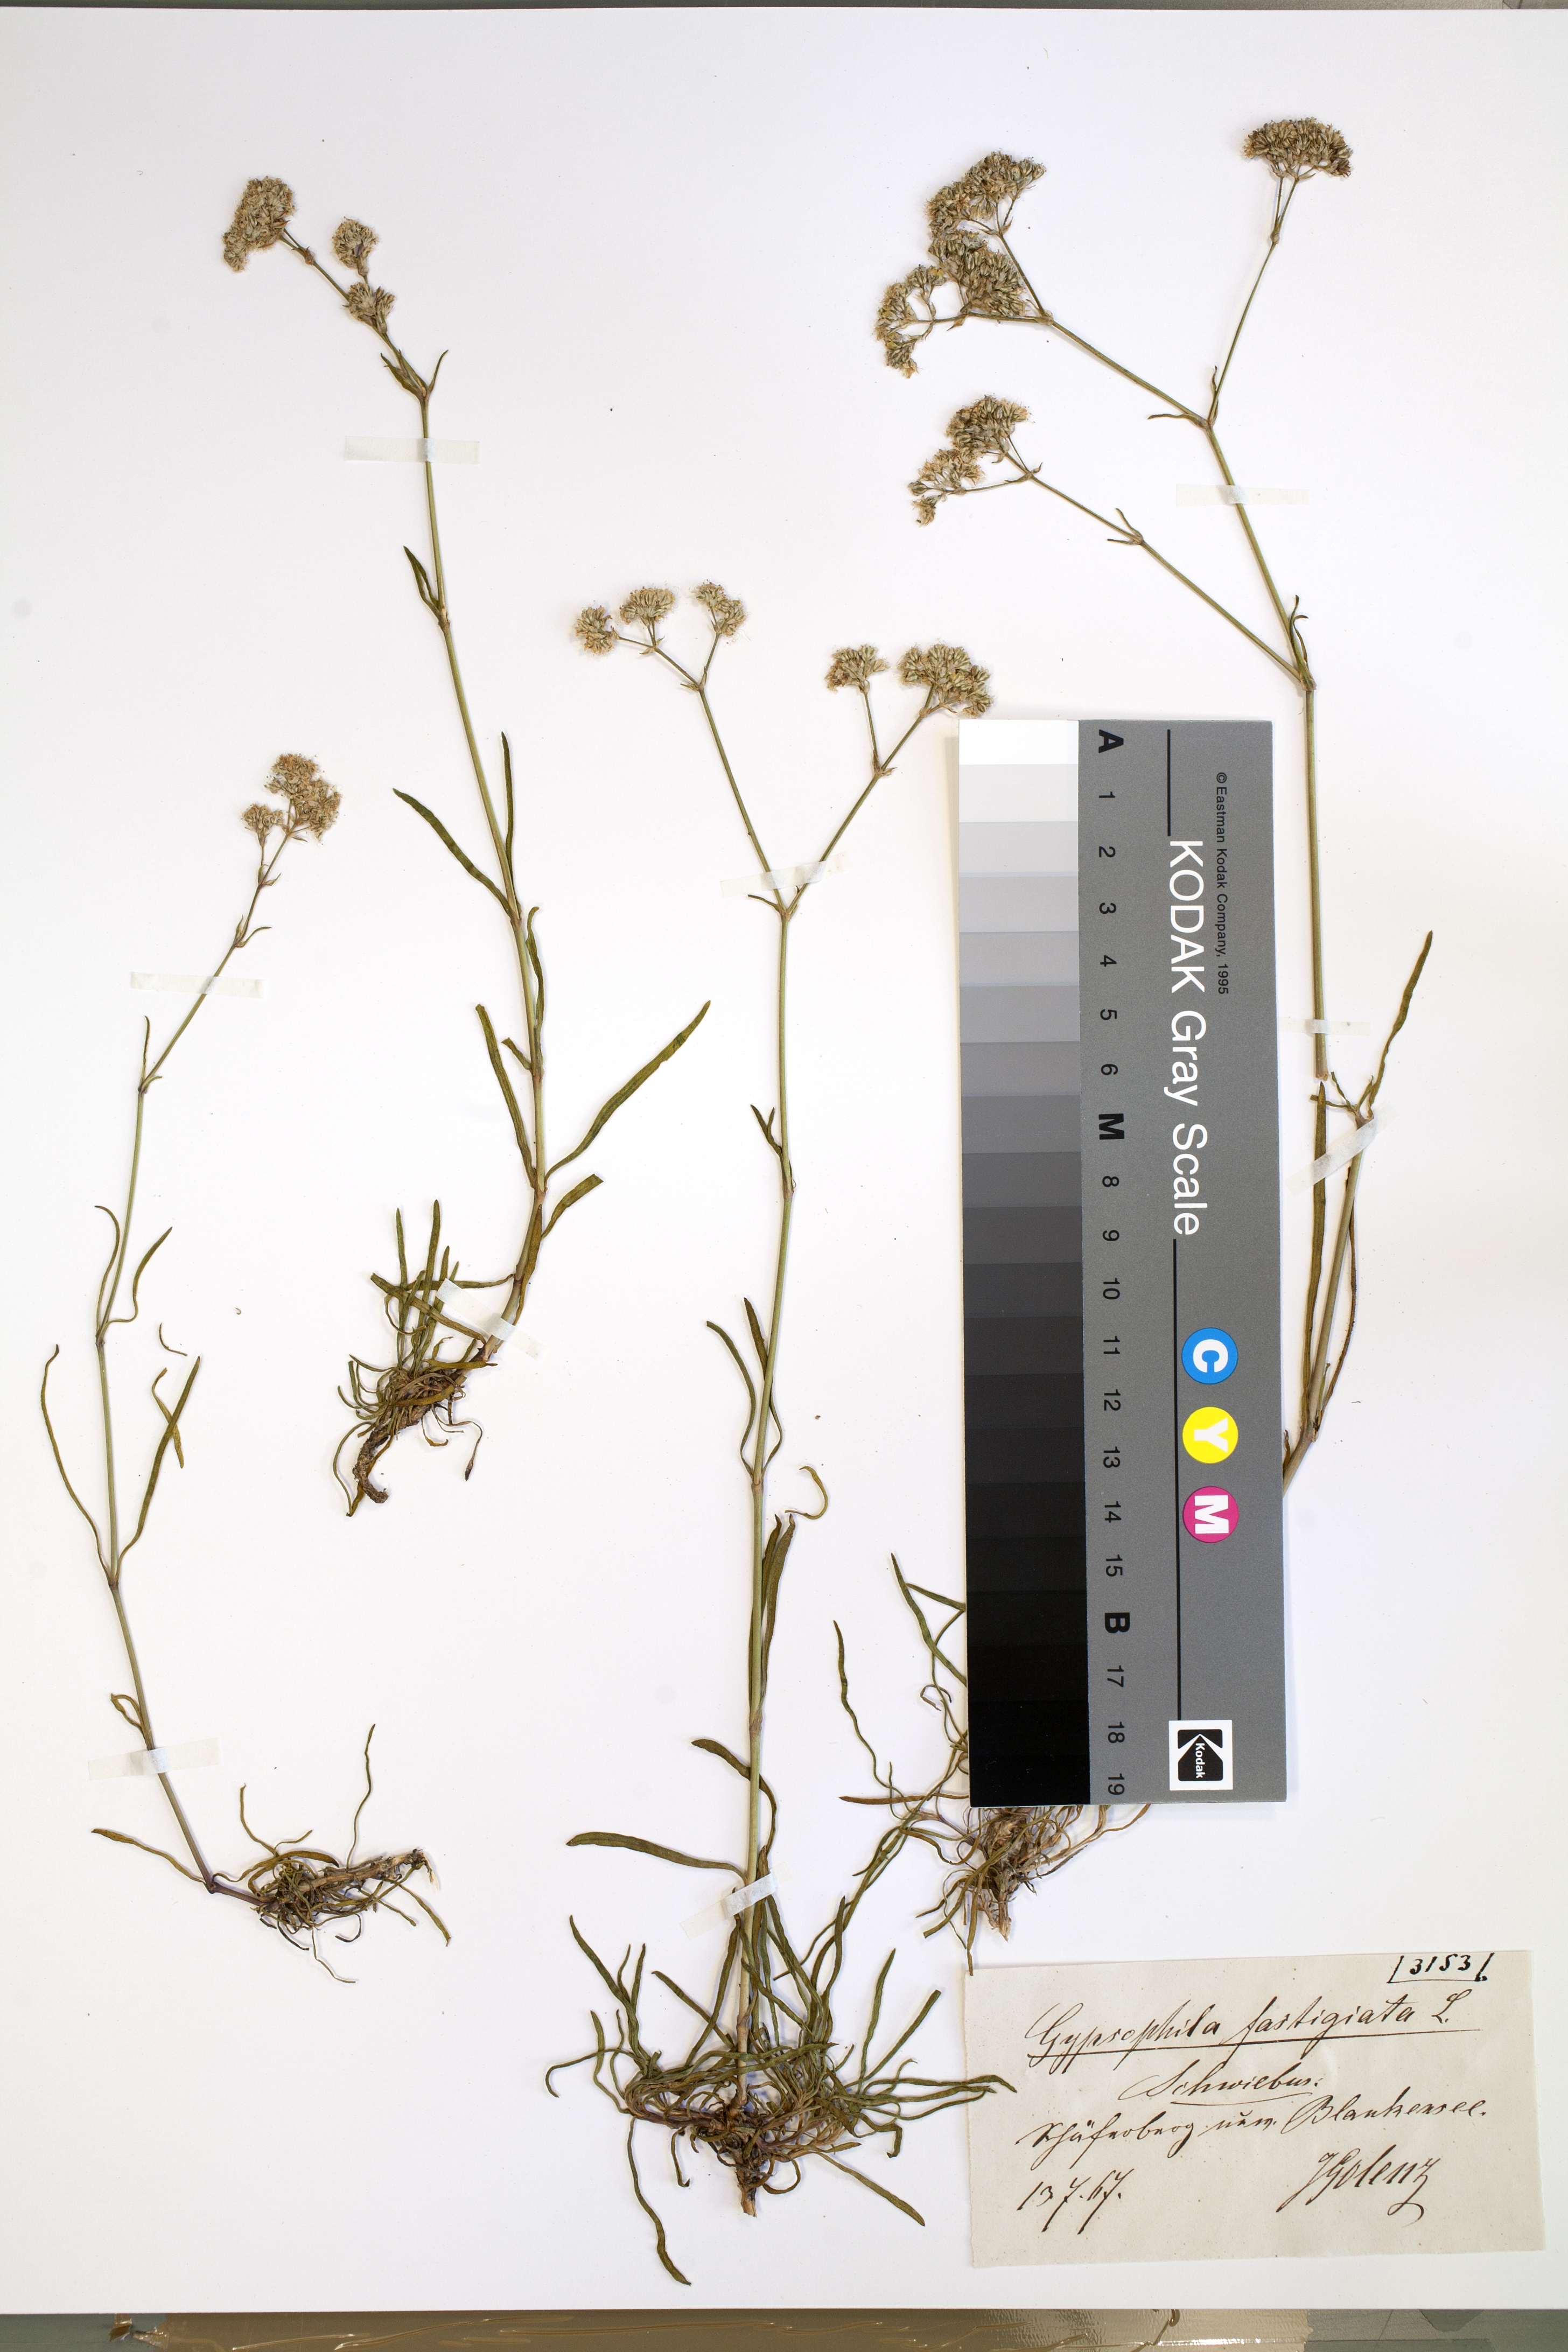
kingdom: Plantae
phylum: Tracheophyta
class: Magnoliopsida
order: Caryophyllales
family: Caryophyllaceae
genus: Gypsophila
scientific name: Gypsophila fastigiata
